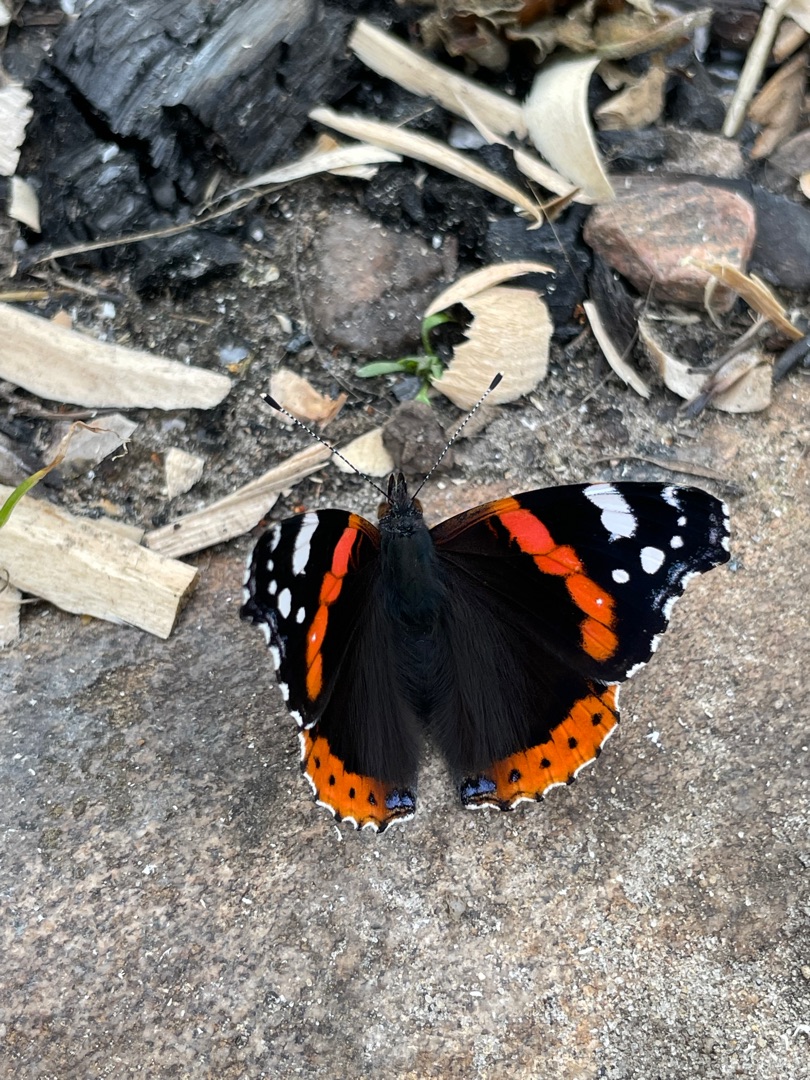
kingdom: Animalia
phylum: Arthropoda
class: Insecta
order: Lepidoptera
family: Nymphalidae
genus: Vanessa
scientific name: Vanessa atalanta
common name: Admiral
